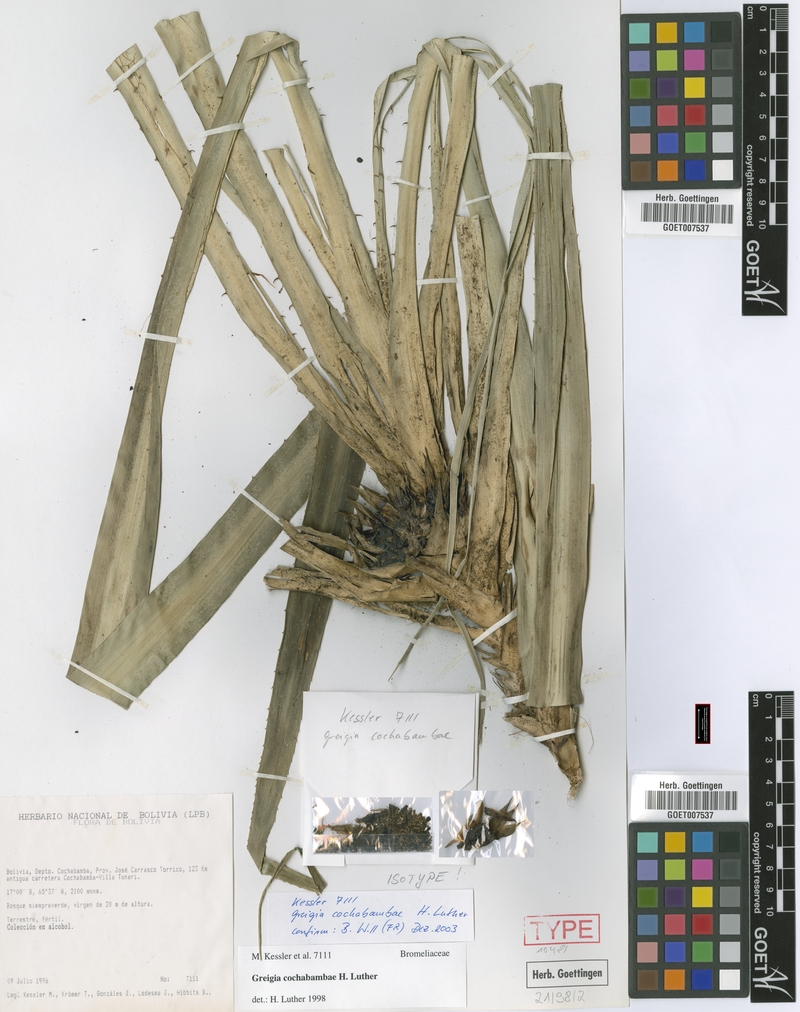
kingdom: Plantae
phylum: Tracheophyta
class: Liliopsida
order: Poales
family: Bromeliaceae
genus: Greigia
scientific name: Greigia cochabambae
